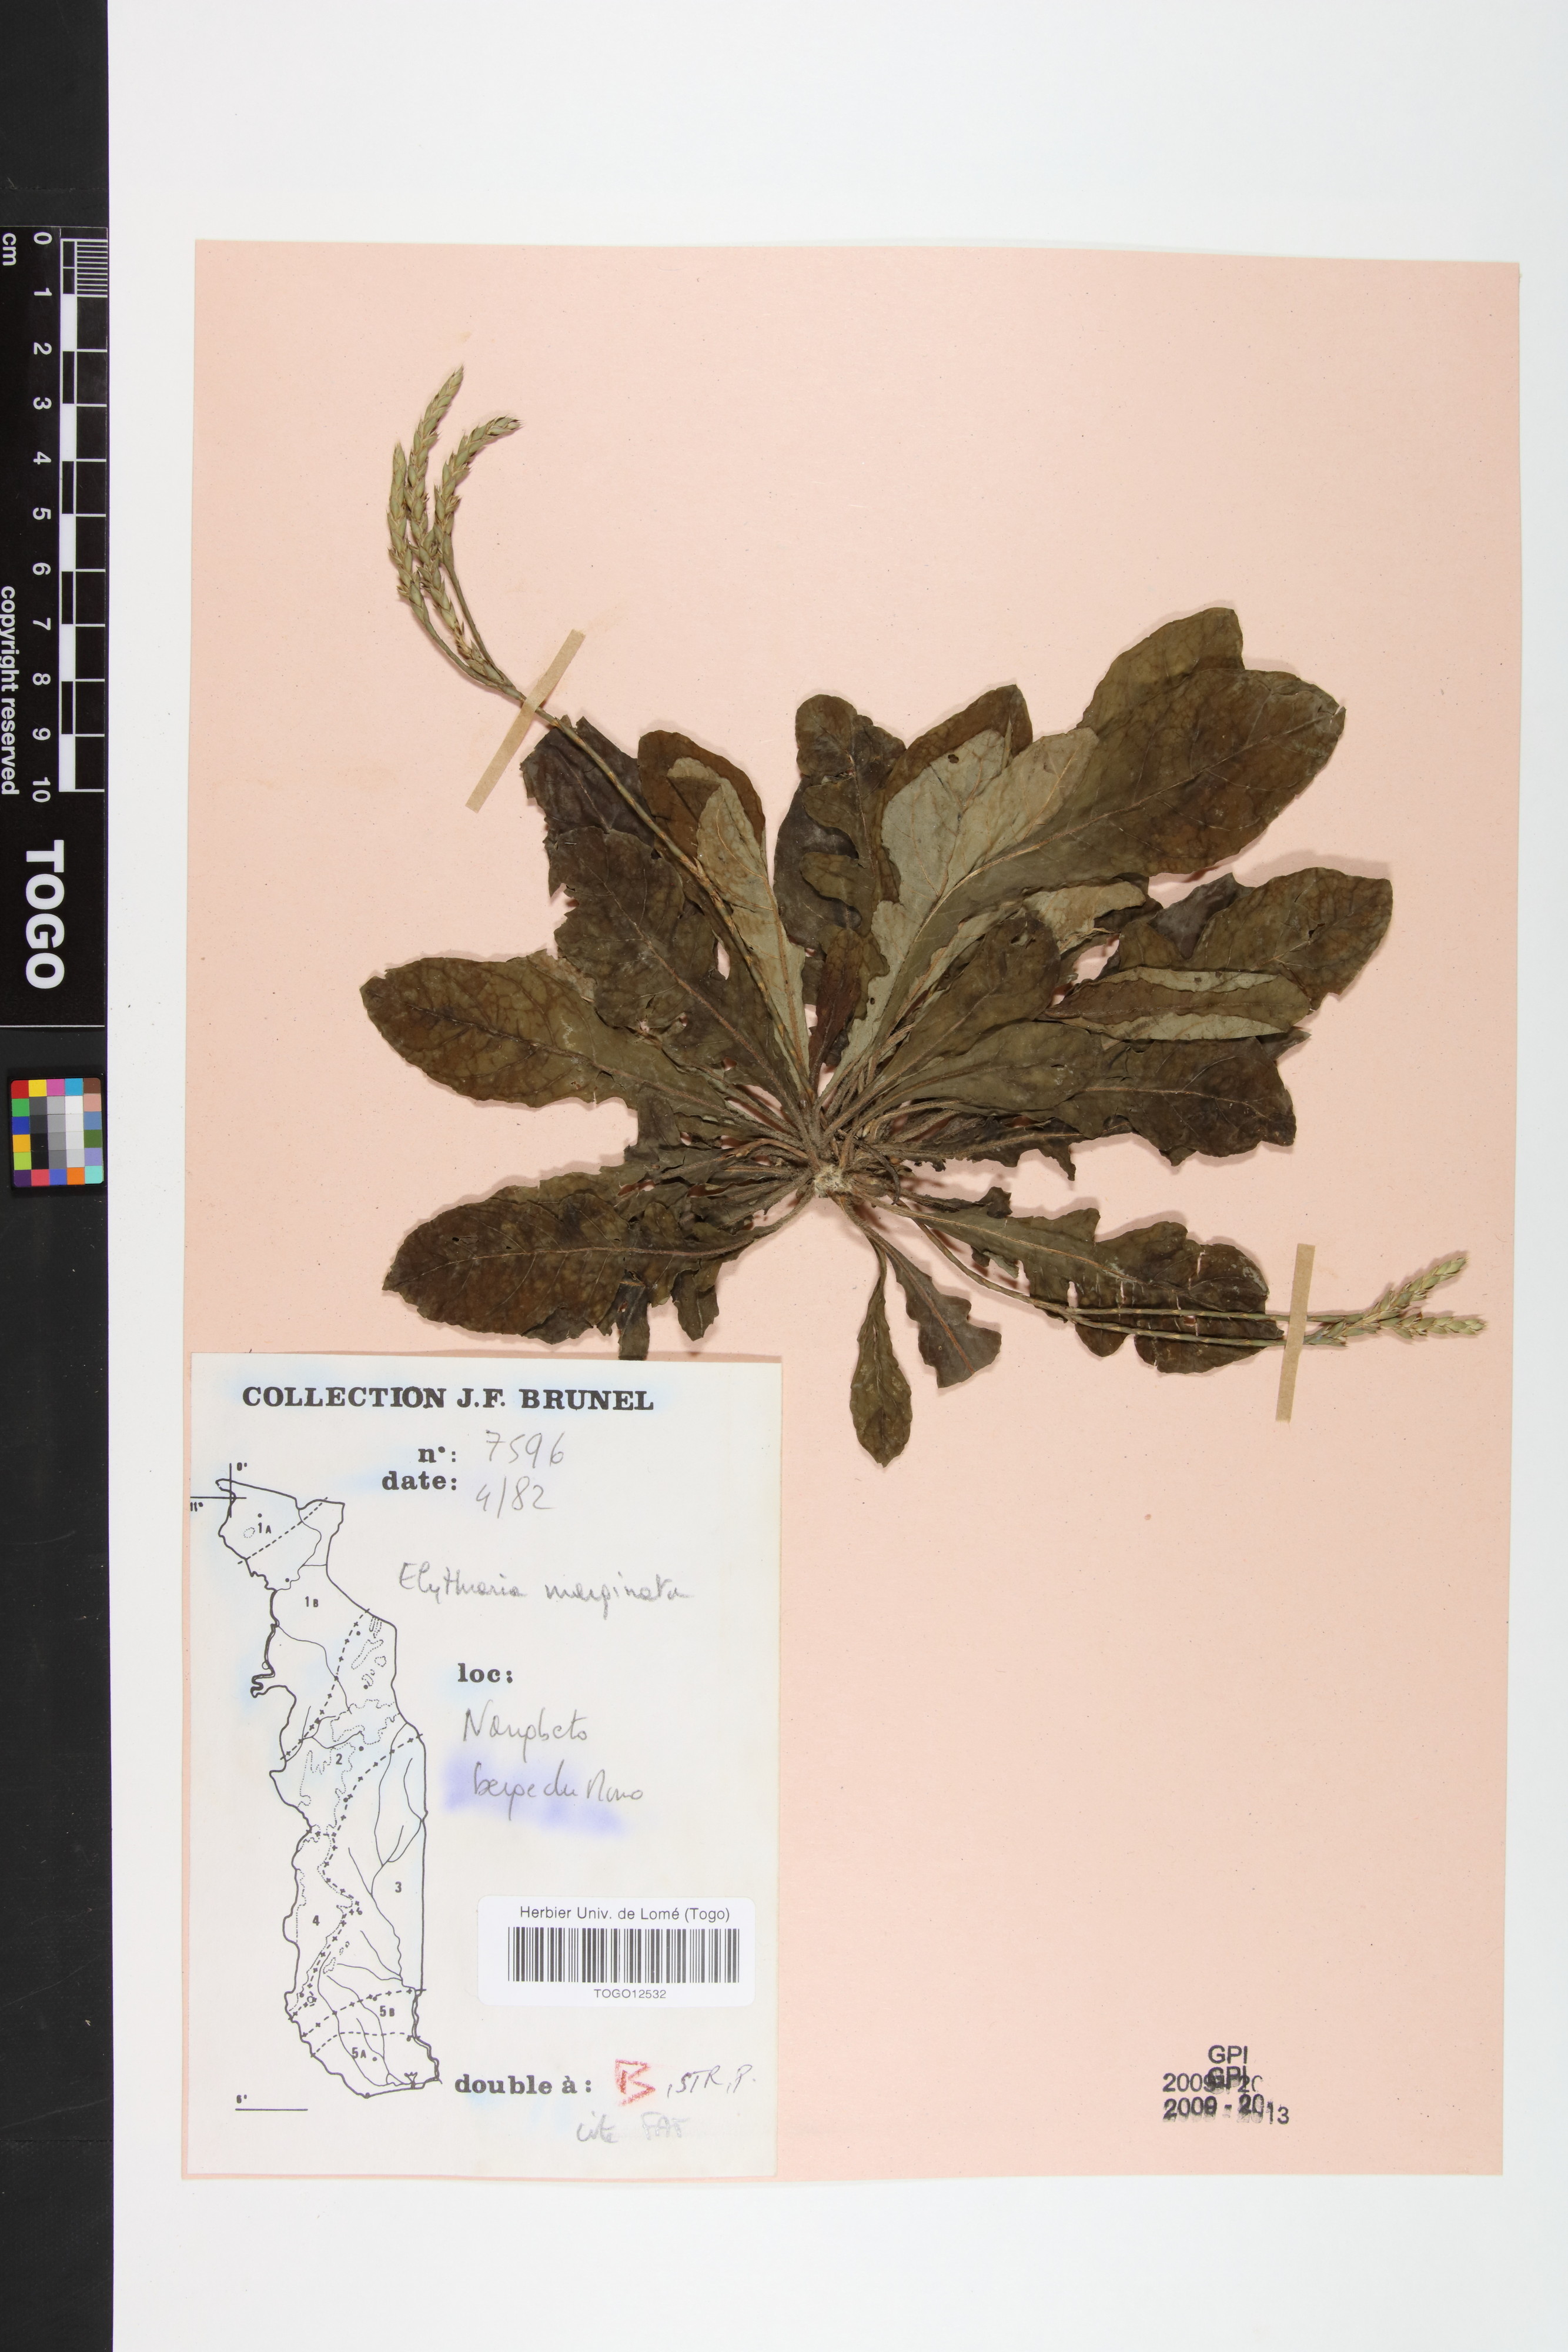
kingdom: Plantae
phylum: Tracheophyta
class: Magnoliopsida
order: Lamiales
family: Acanthaceae
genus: Elytraria
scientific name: Elytraria marginata
